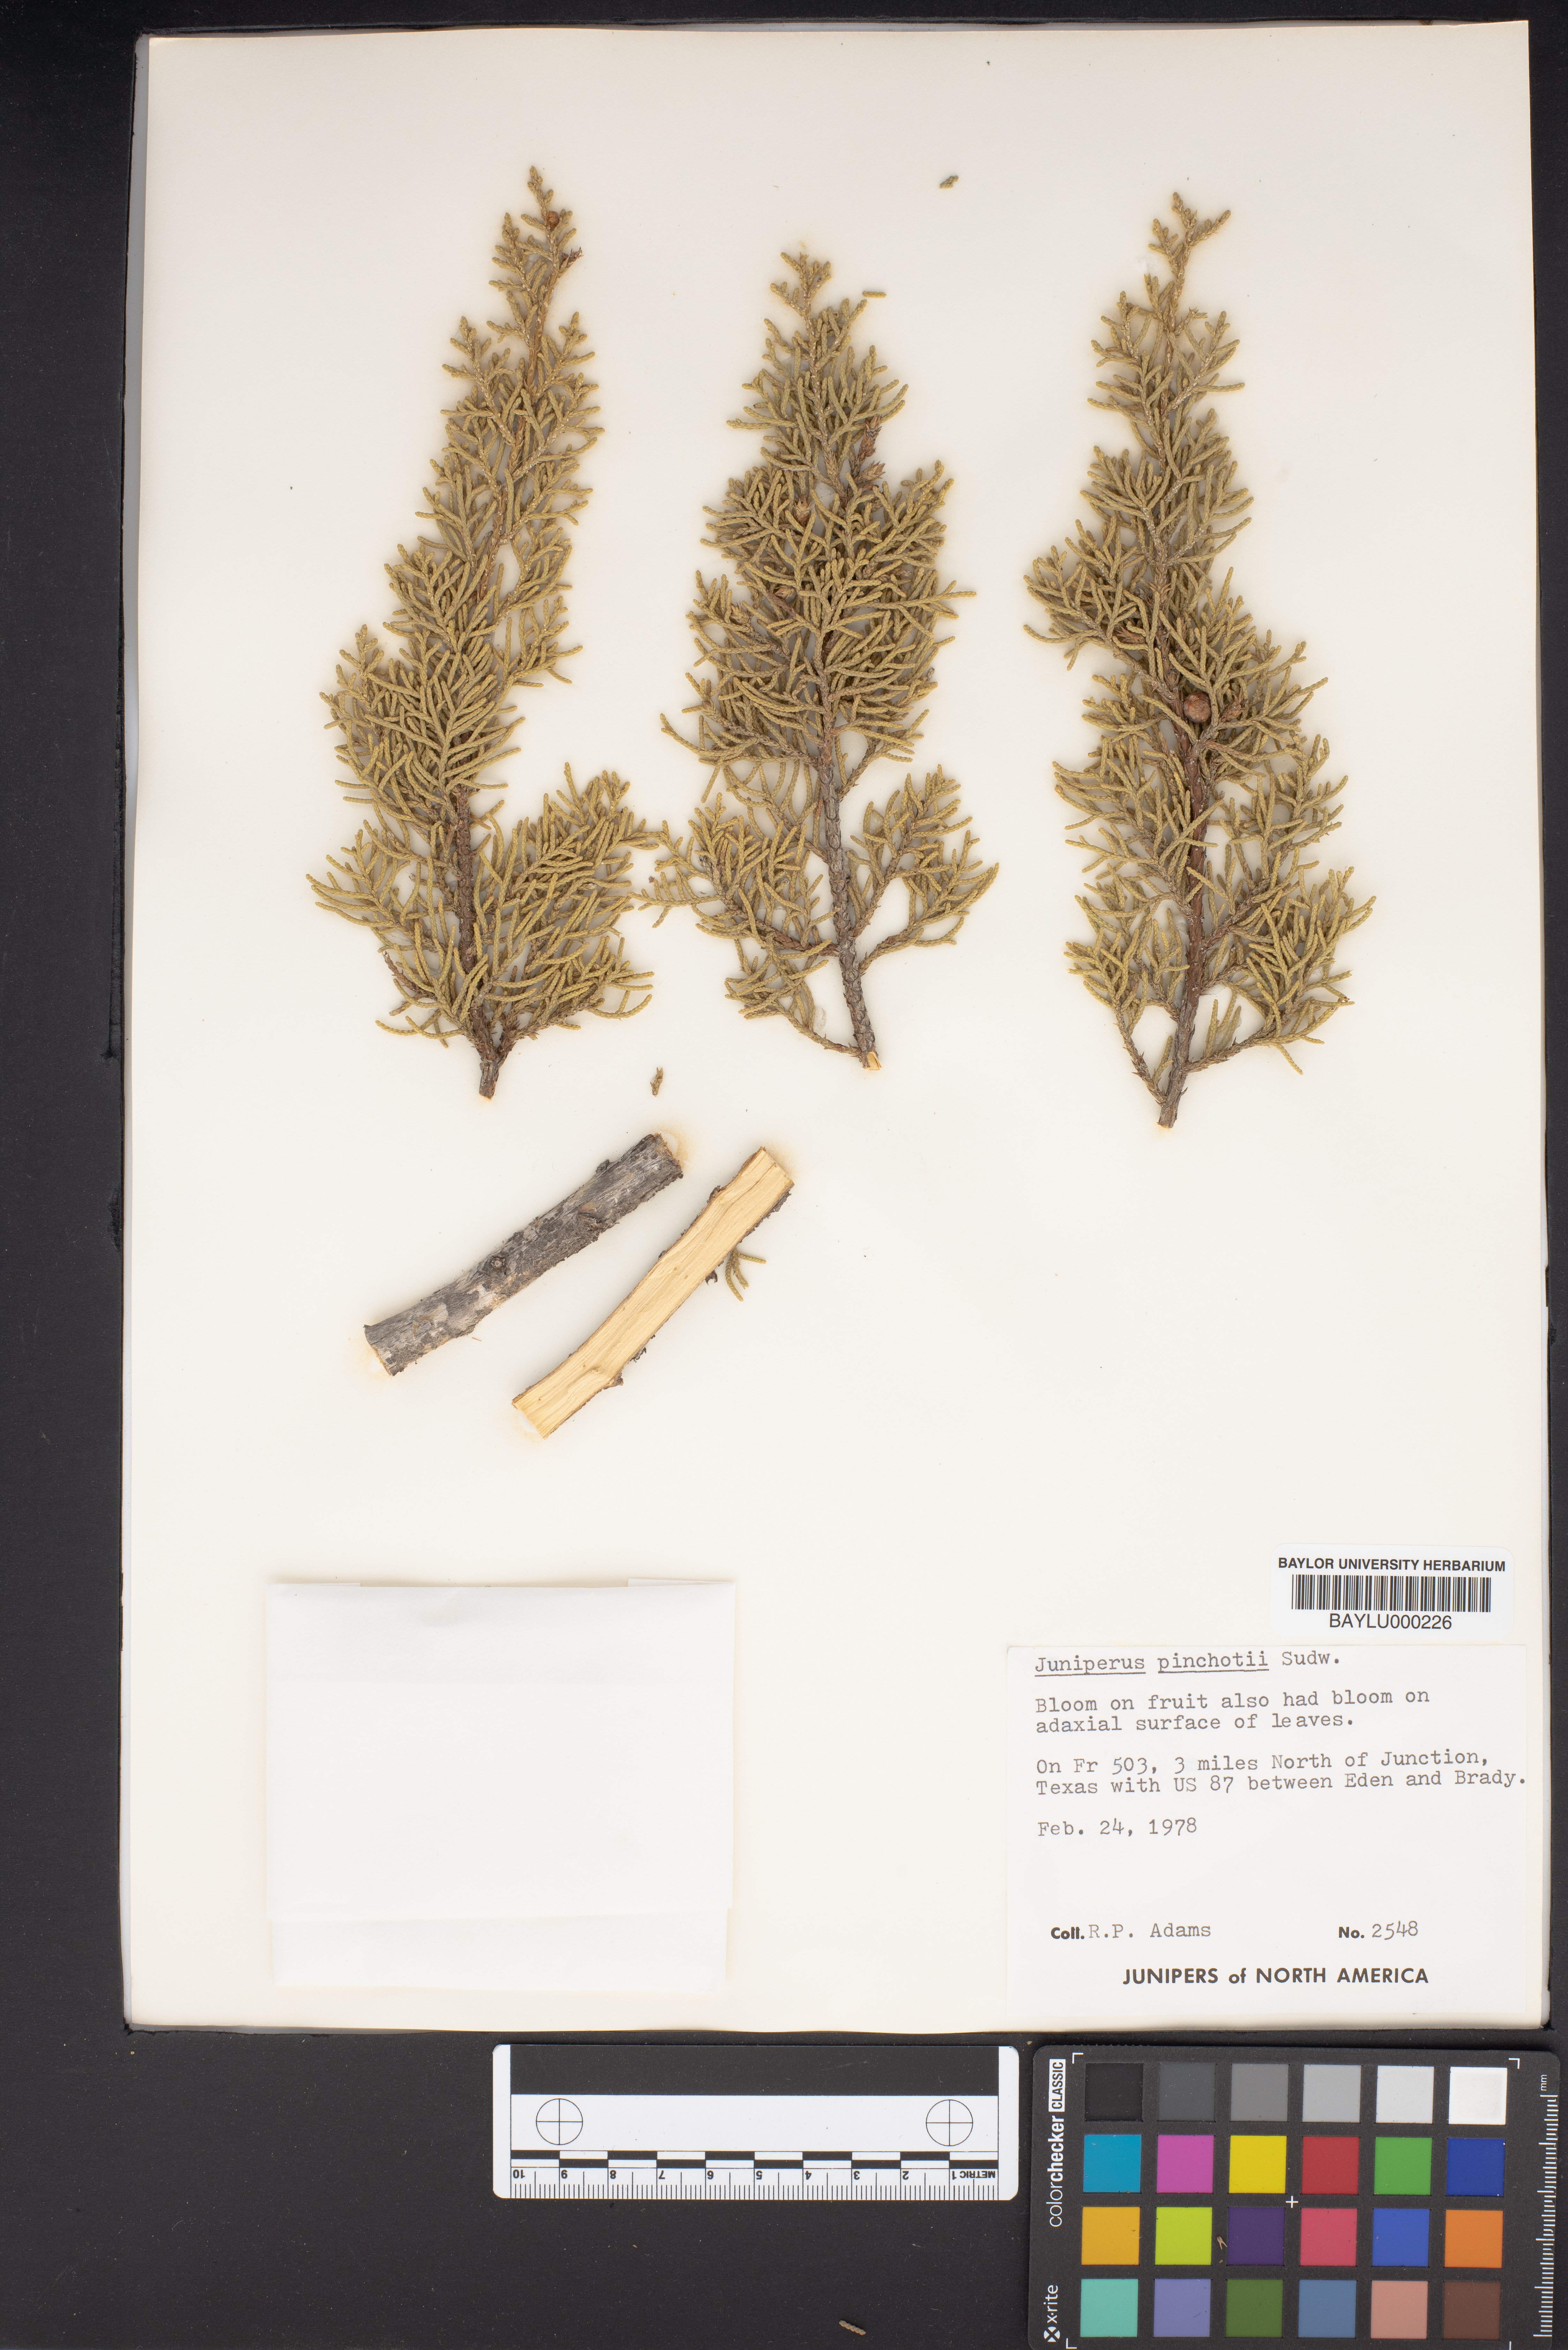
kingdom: Plantae
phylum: Tracheophyta
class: Pinopsida
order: Pinales
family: Cupressaceae
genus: Juniperus
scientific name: Juniperus pinchotii
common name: Pinchot juniper
